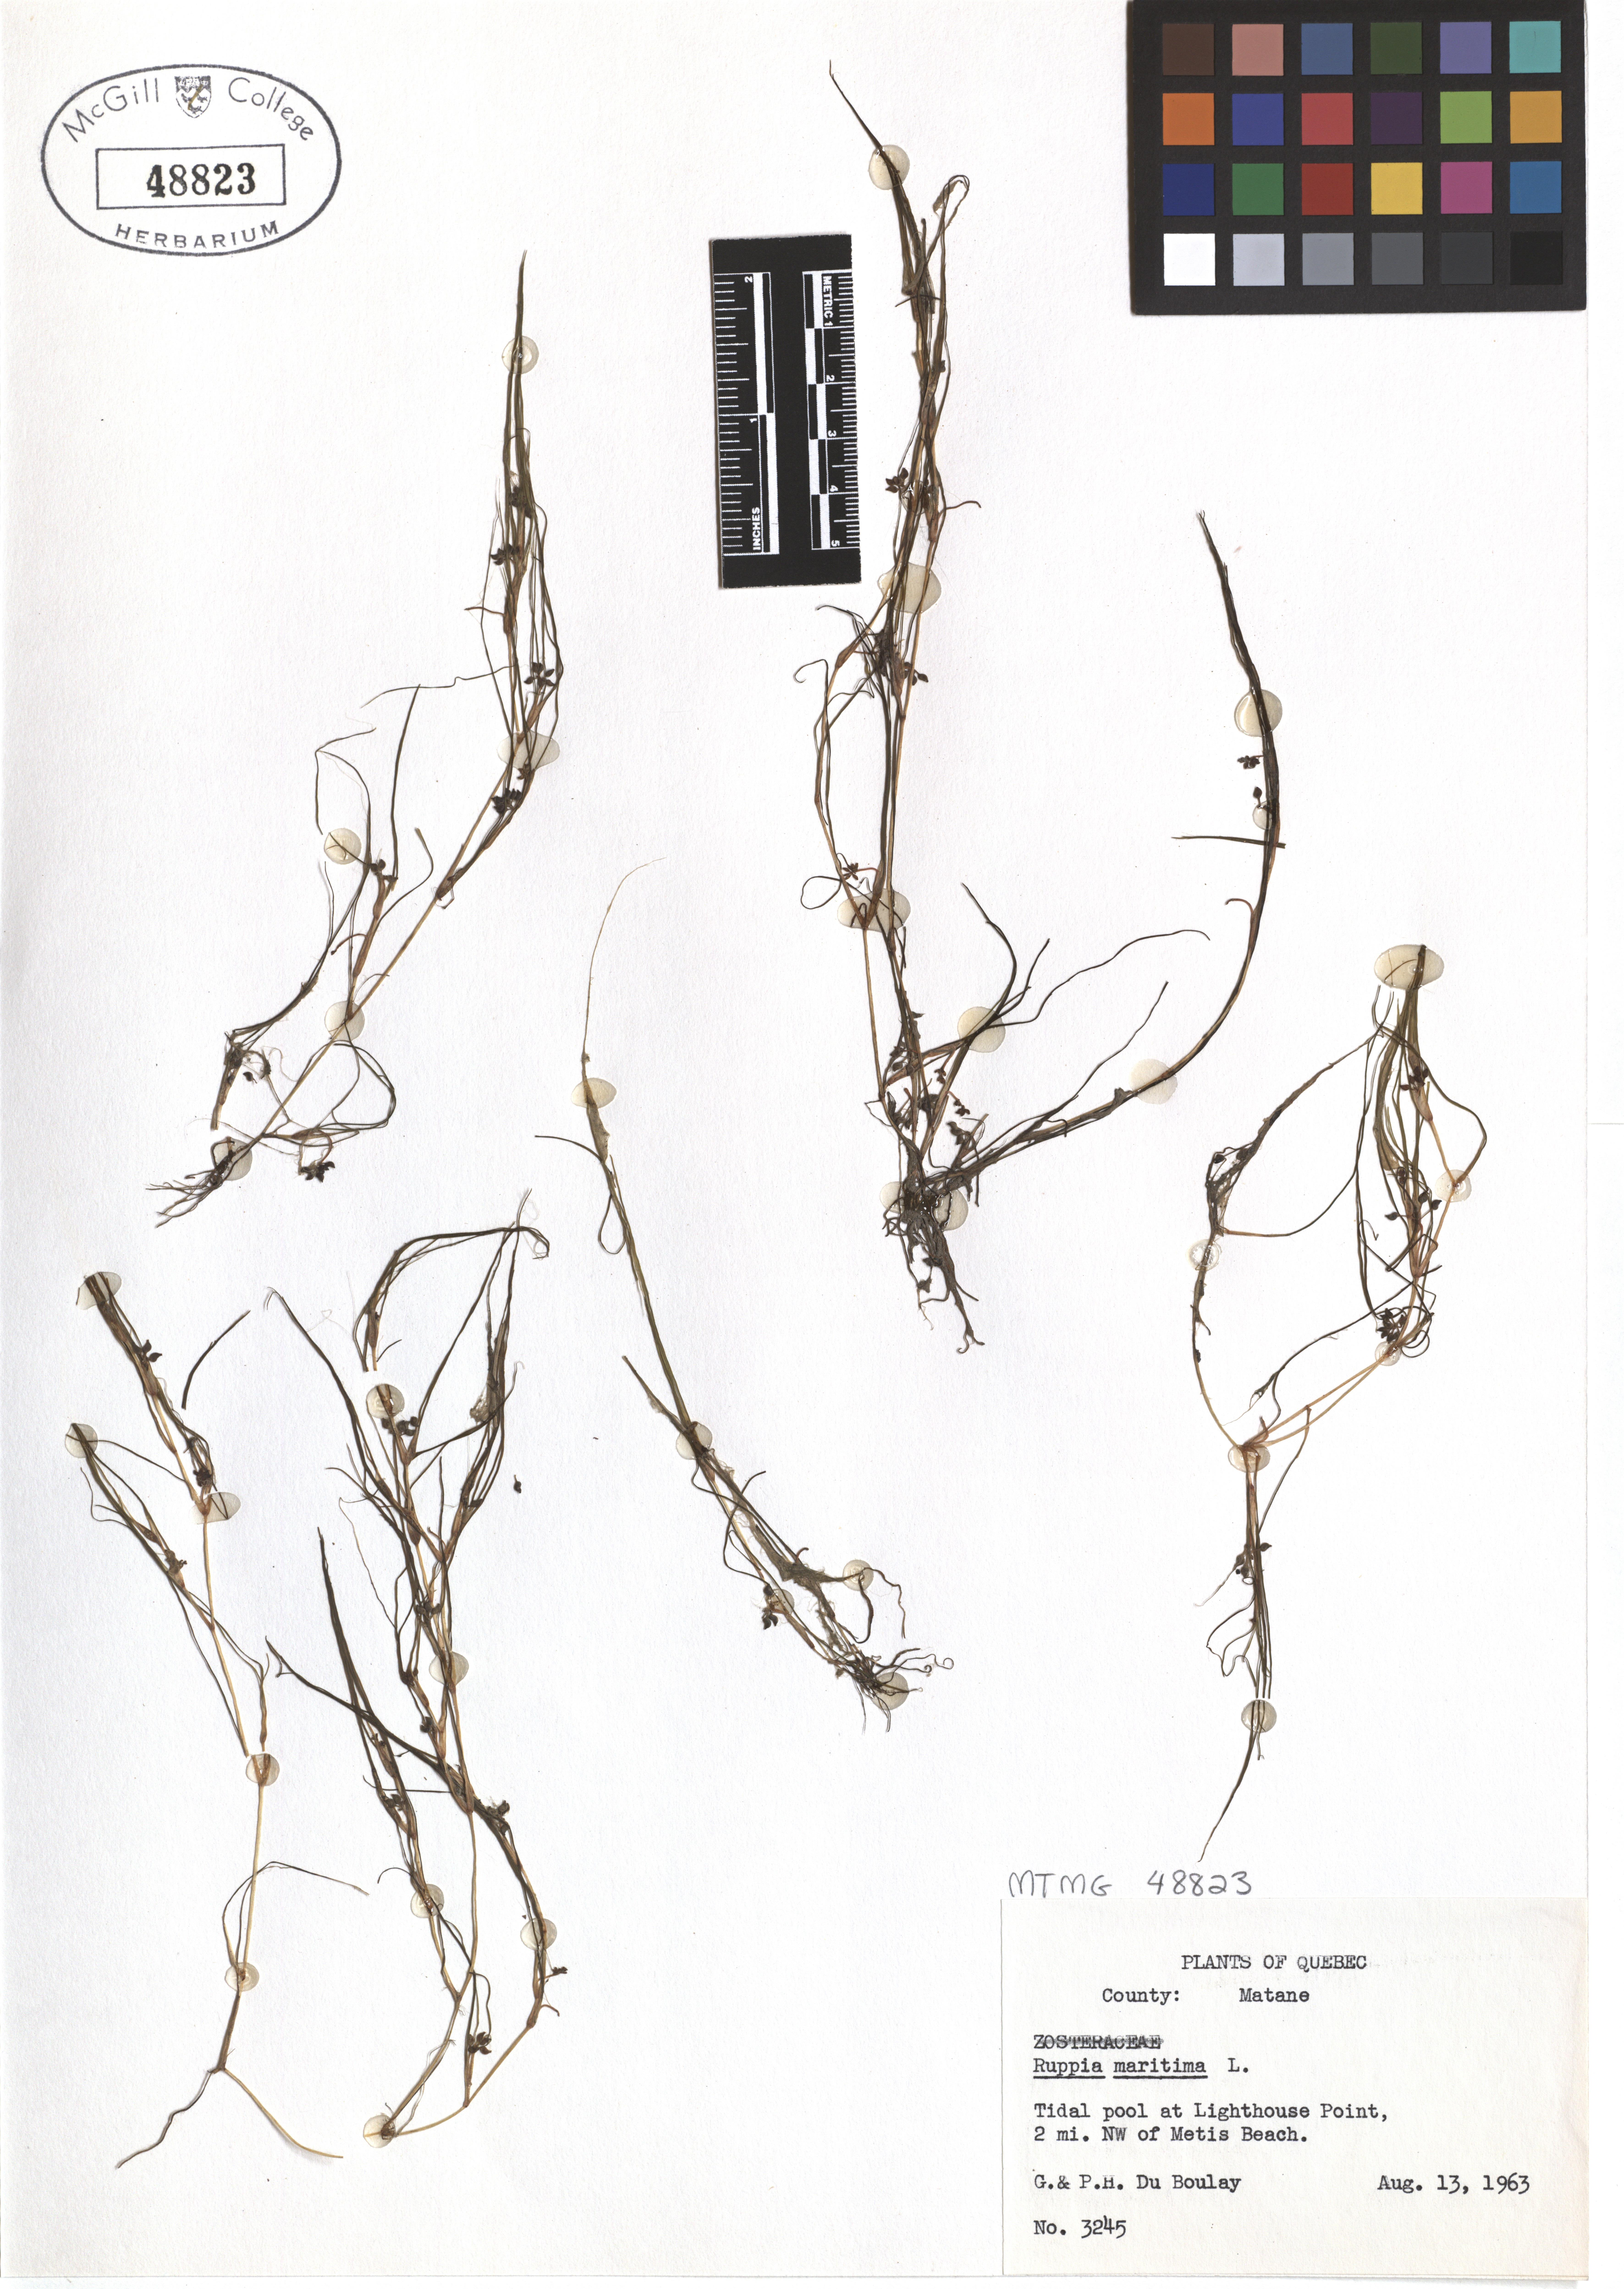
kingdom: Plantae
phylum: Tracheophyta
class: Liliopsida
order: Alismatales
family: Ruppiaceae
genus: Ruppia
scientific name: Ruppia maritima
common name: Beaked tasselweed
